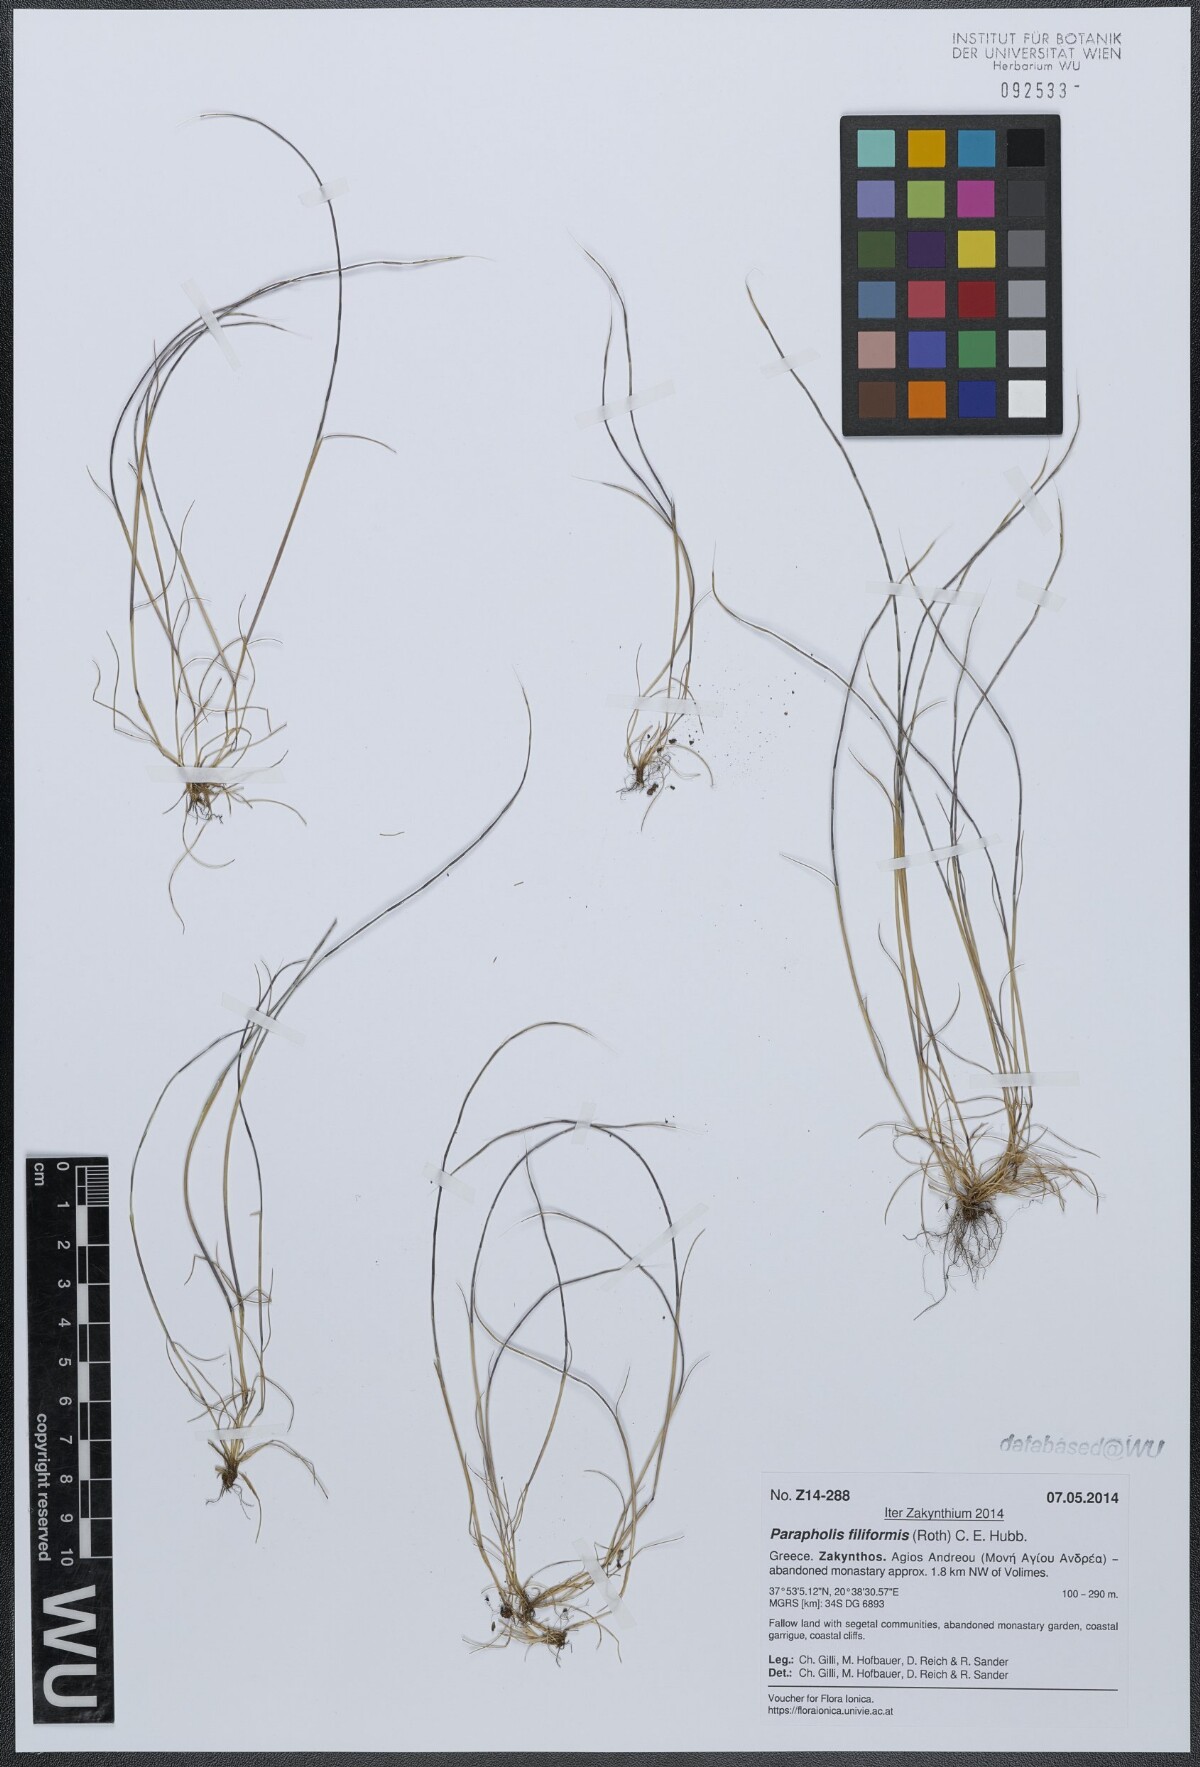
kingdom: Plantae
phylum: Tracheophyta
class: Liliopsida
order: Poales
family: Poaceae
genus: Parapholis
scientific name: Parapholis filiformis
